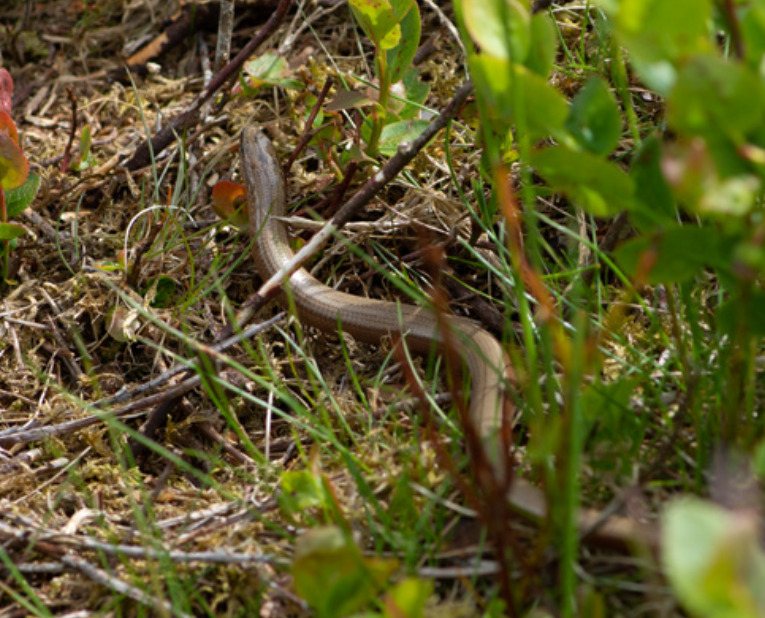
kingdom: Animalia
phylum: Chordata
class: Squamata
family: Anguidae
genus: Anguis
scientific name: Anguis fragilis
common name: Stålorm
